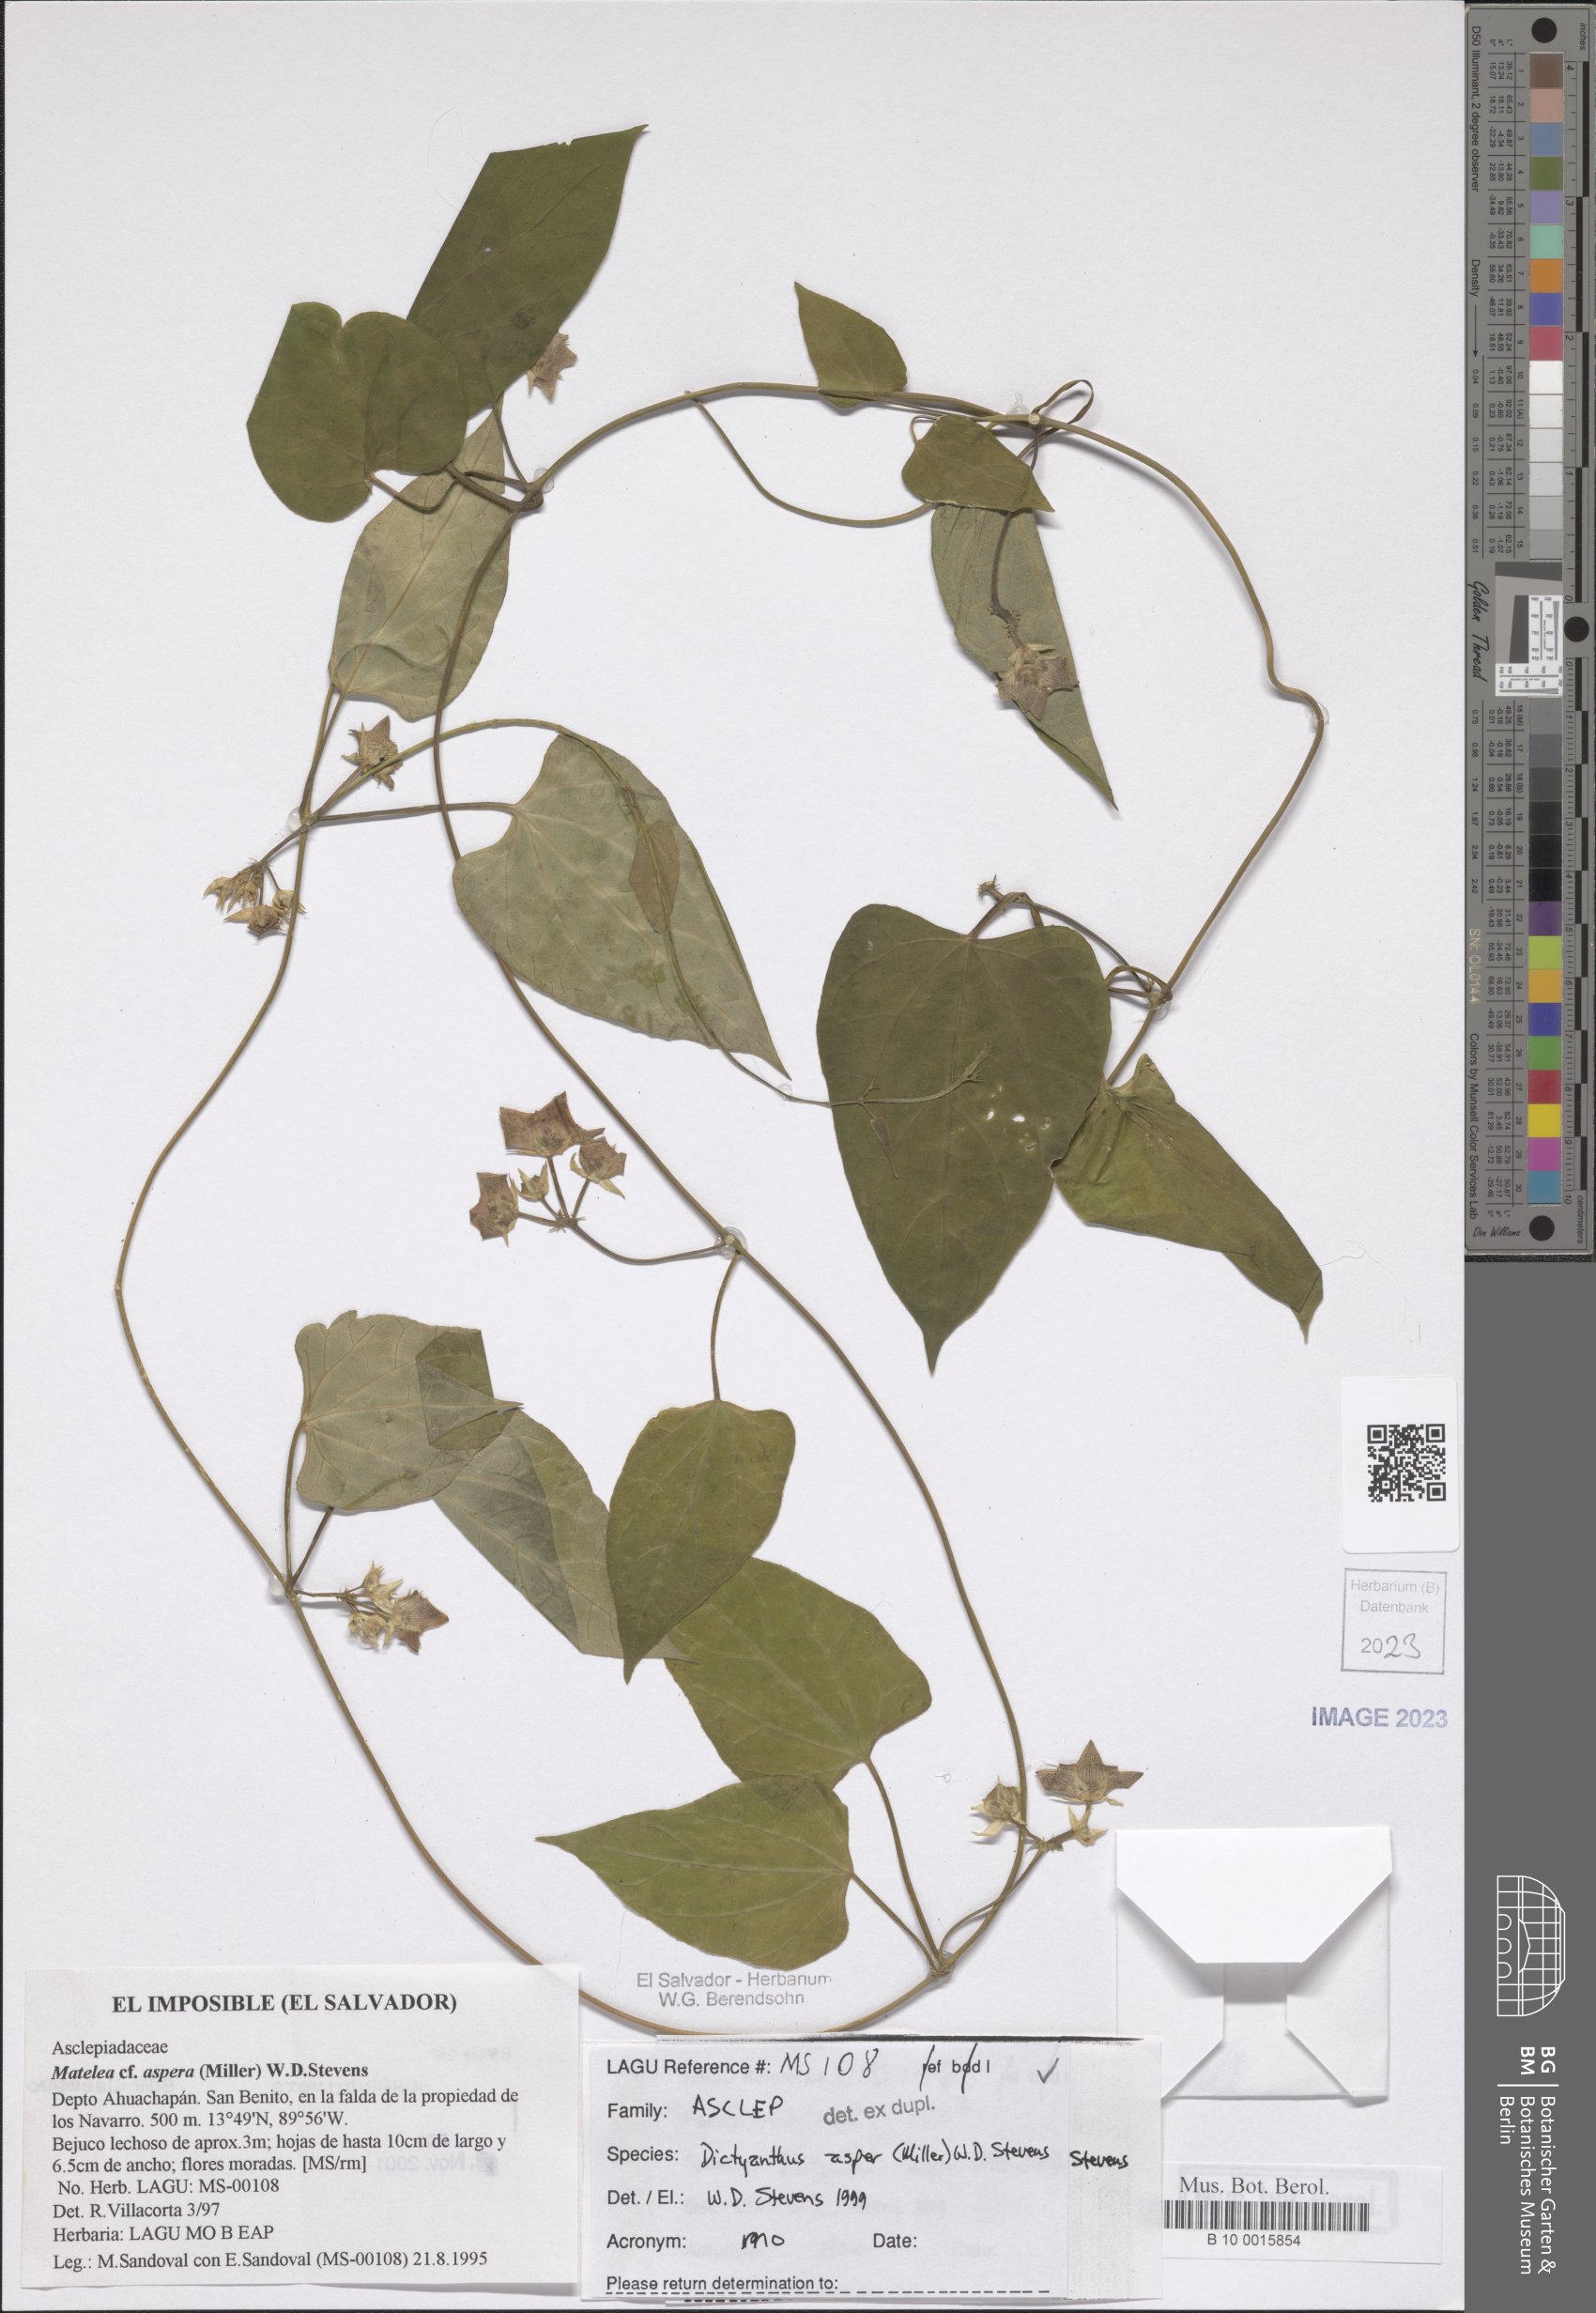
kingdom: Plantae
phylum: Tracheophyta
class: Magnoliopsida
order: Gentianales
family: Apocynaceae
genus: Dictyanthus
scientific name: Dictyanthus asper
